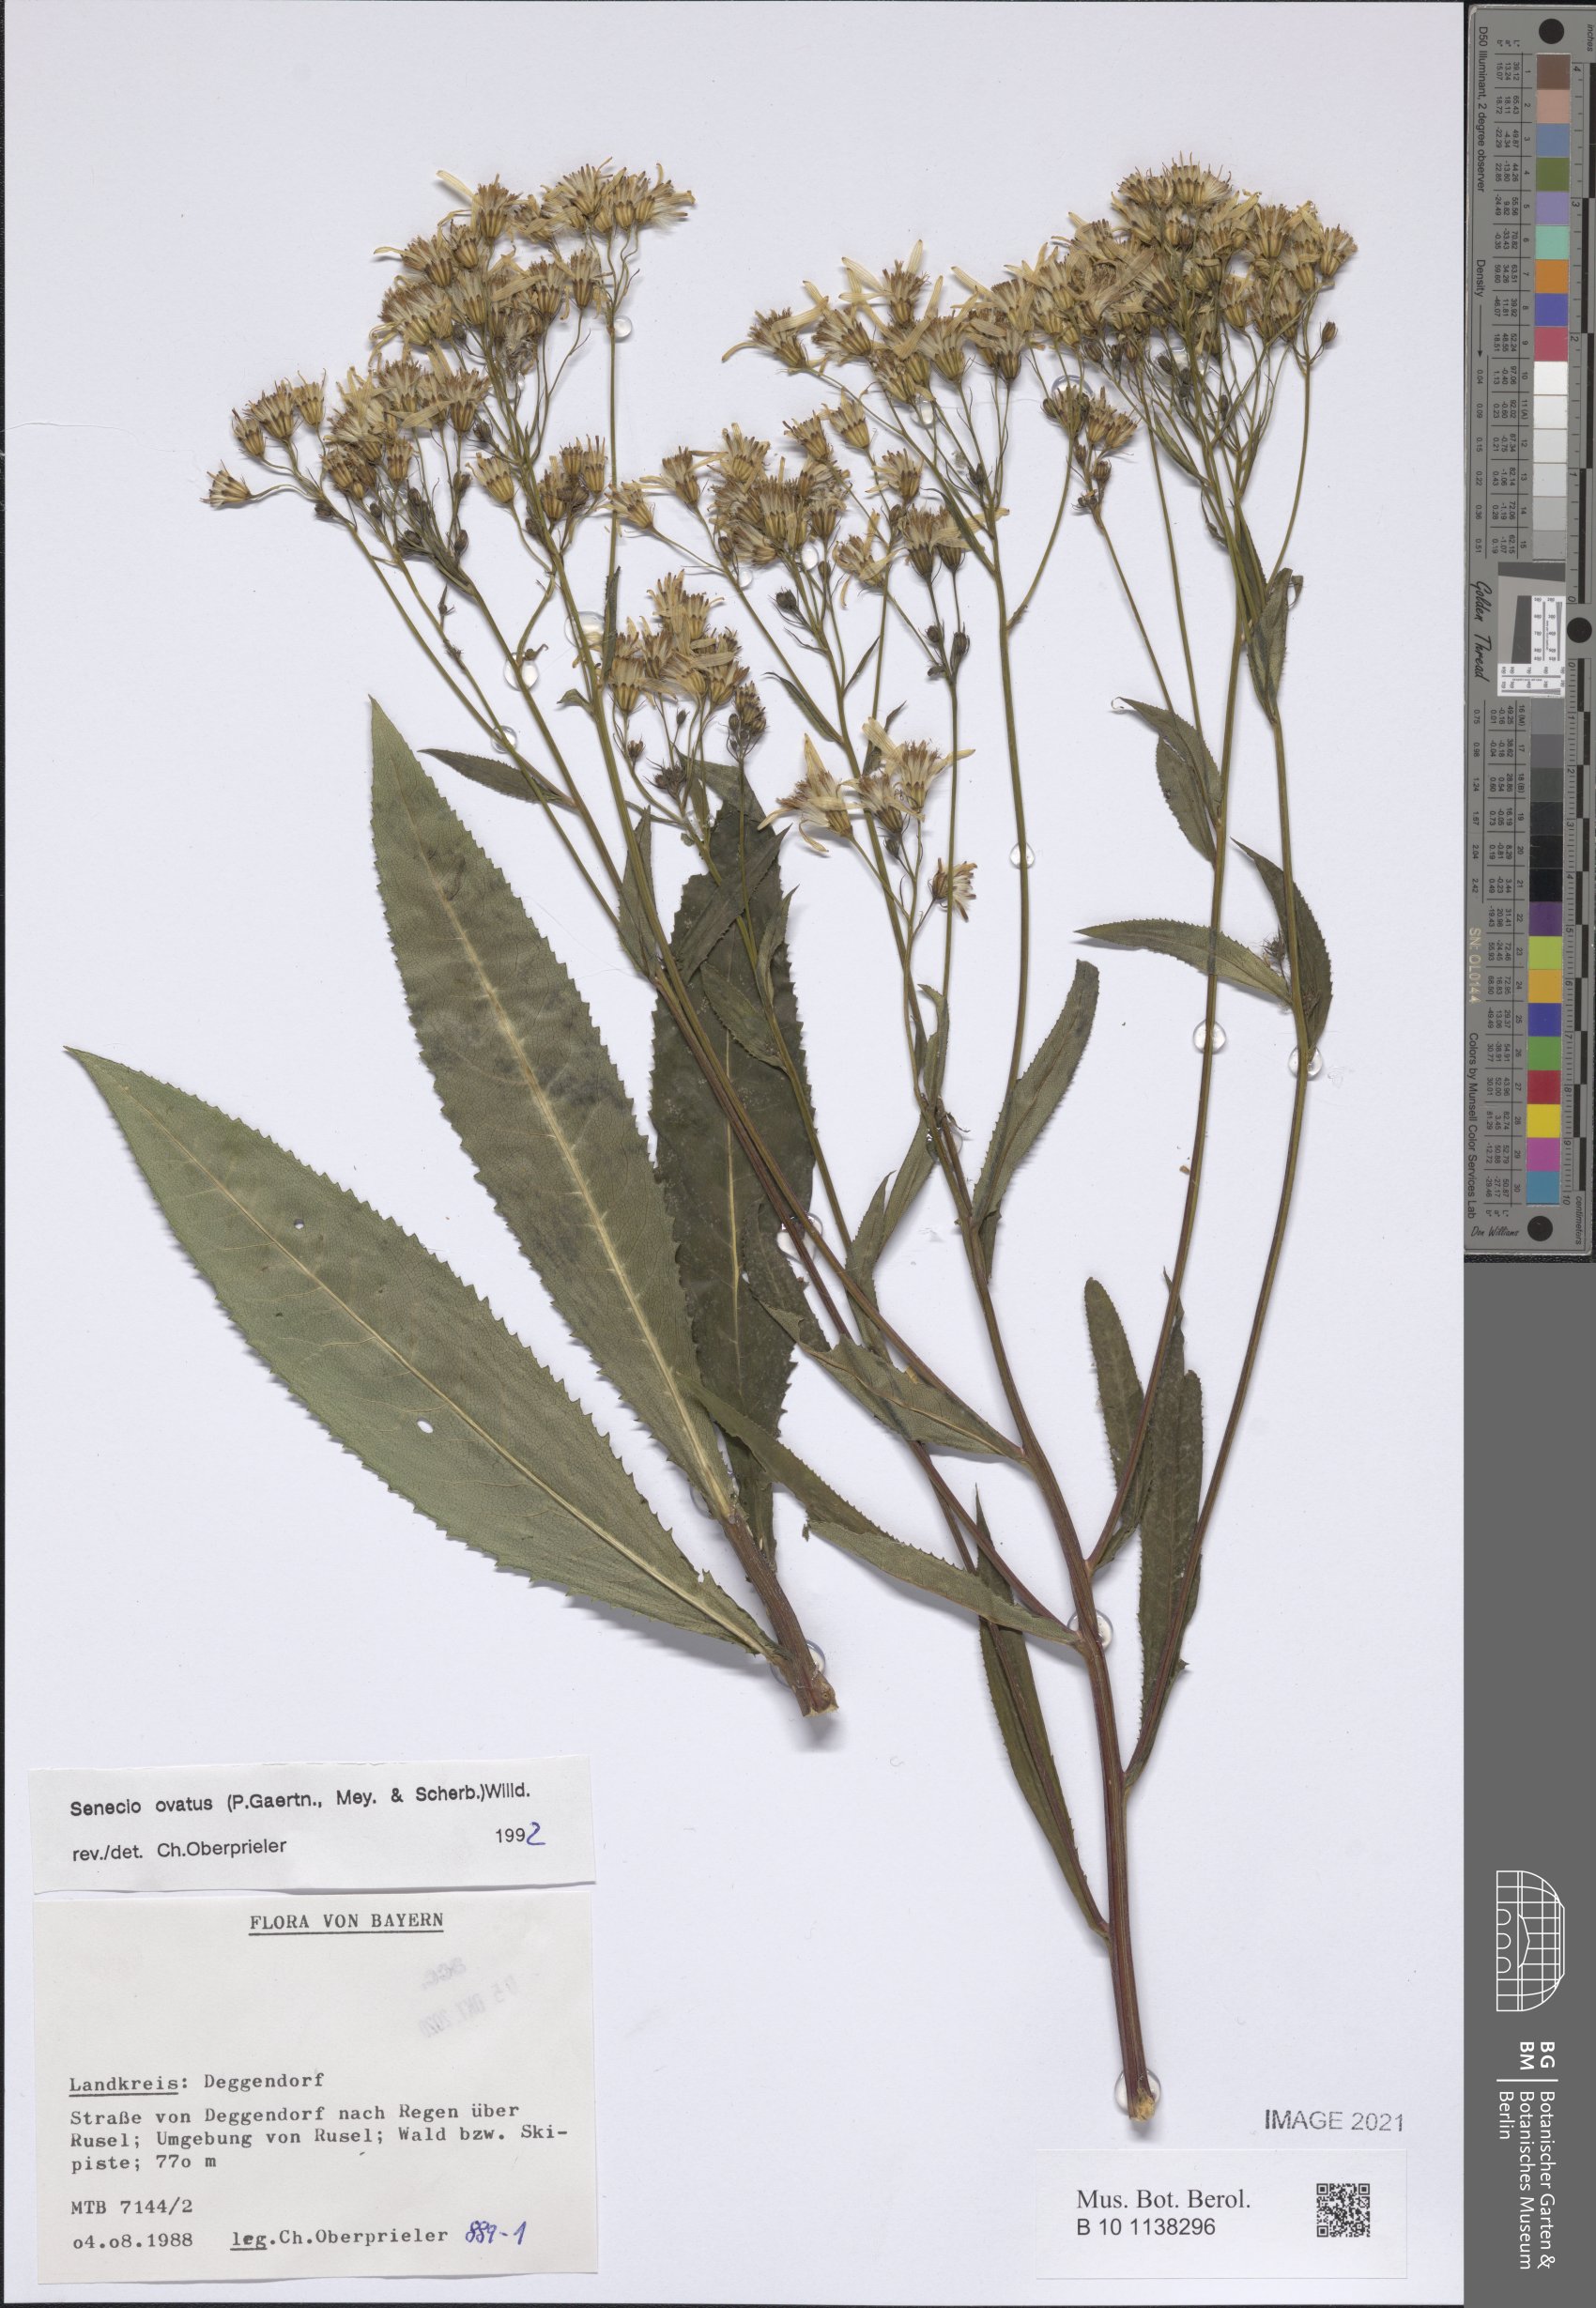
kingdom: Plantae
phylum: Tracheophyta
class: Magnoliopsida
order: Asterales
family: Asteraceae
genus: Senecio
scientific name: Senecio ovatus
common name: Wood ragwort
